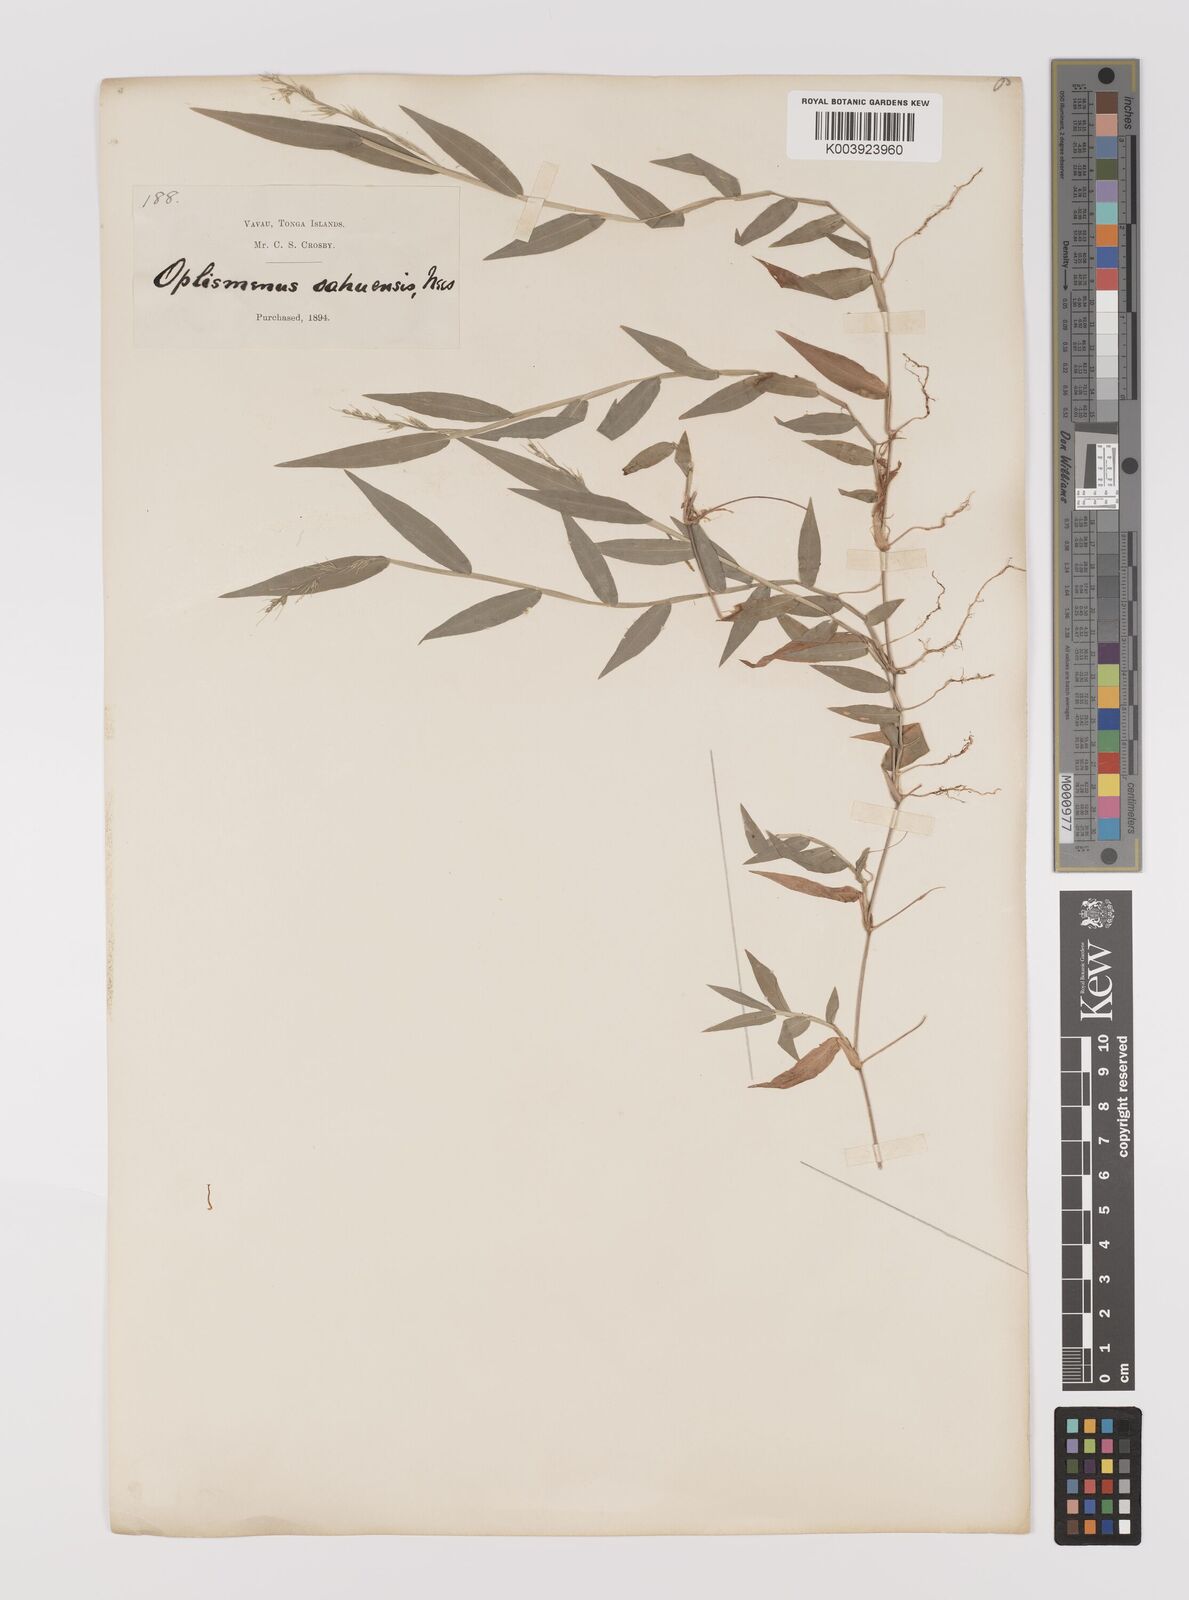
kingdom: Plantae
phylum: Tracheophyta
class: Liliopsida
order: Poales
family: Poaceae
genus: Oplismenus
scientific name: Oplismenus compositus
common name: Running mountain grass
